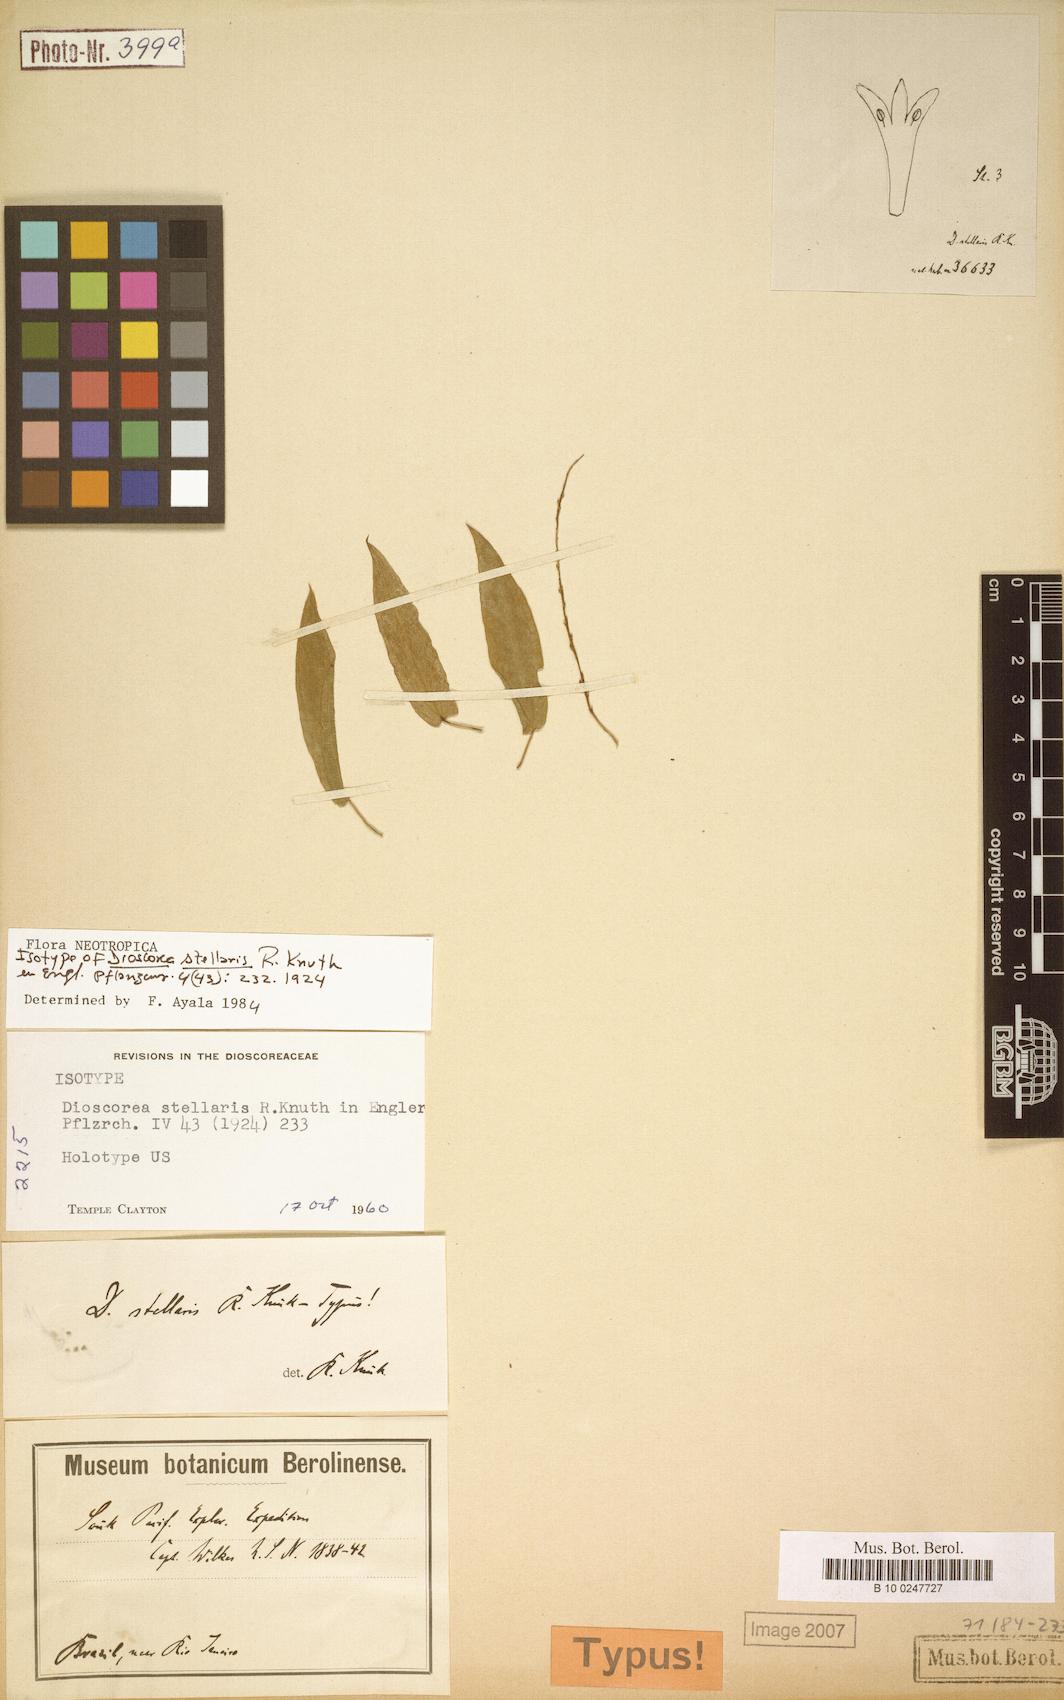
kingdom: Plantae
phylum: Tracheophyta
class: Liliopsida
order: Dioscoreales
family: Dioscoreaceae
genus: Dioscorea
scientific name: Dioscorea stellaris
